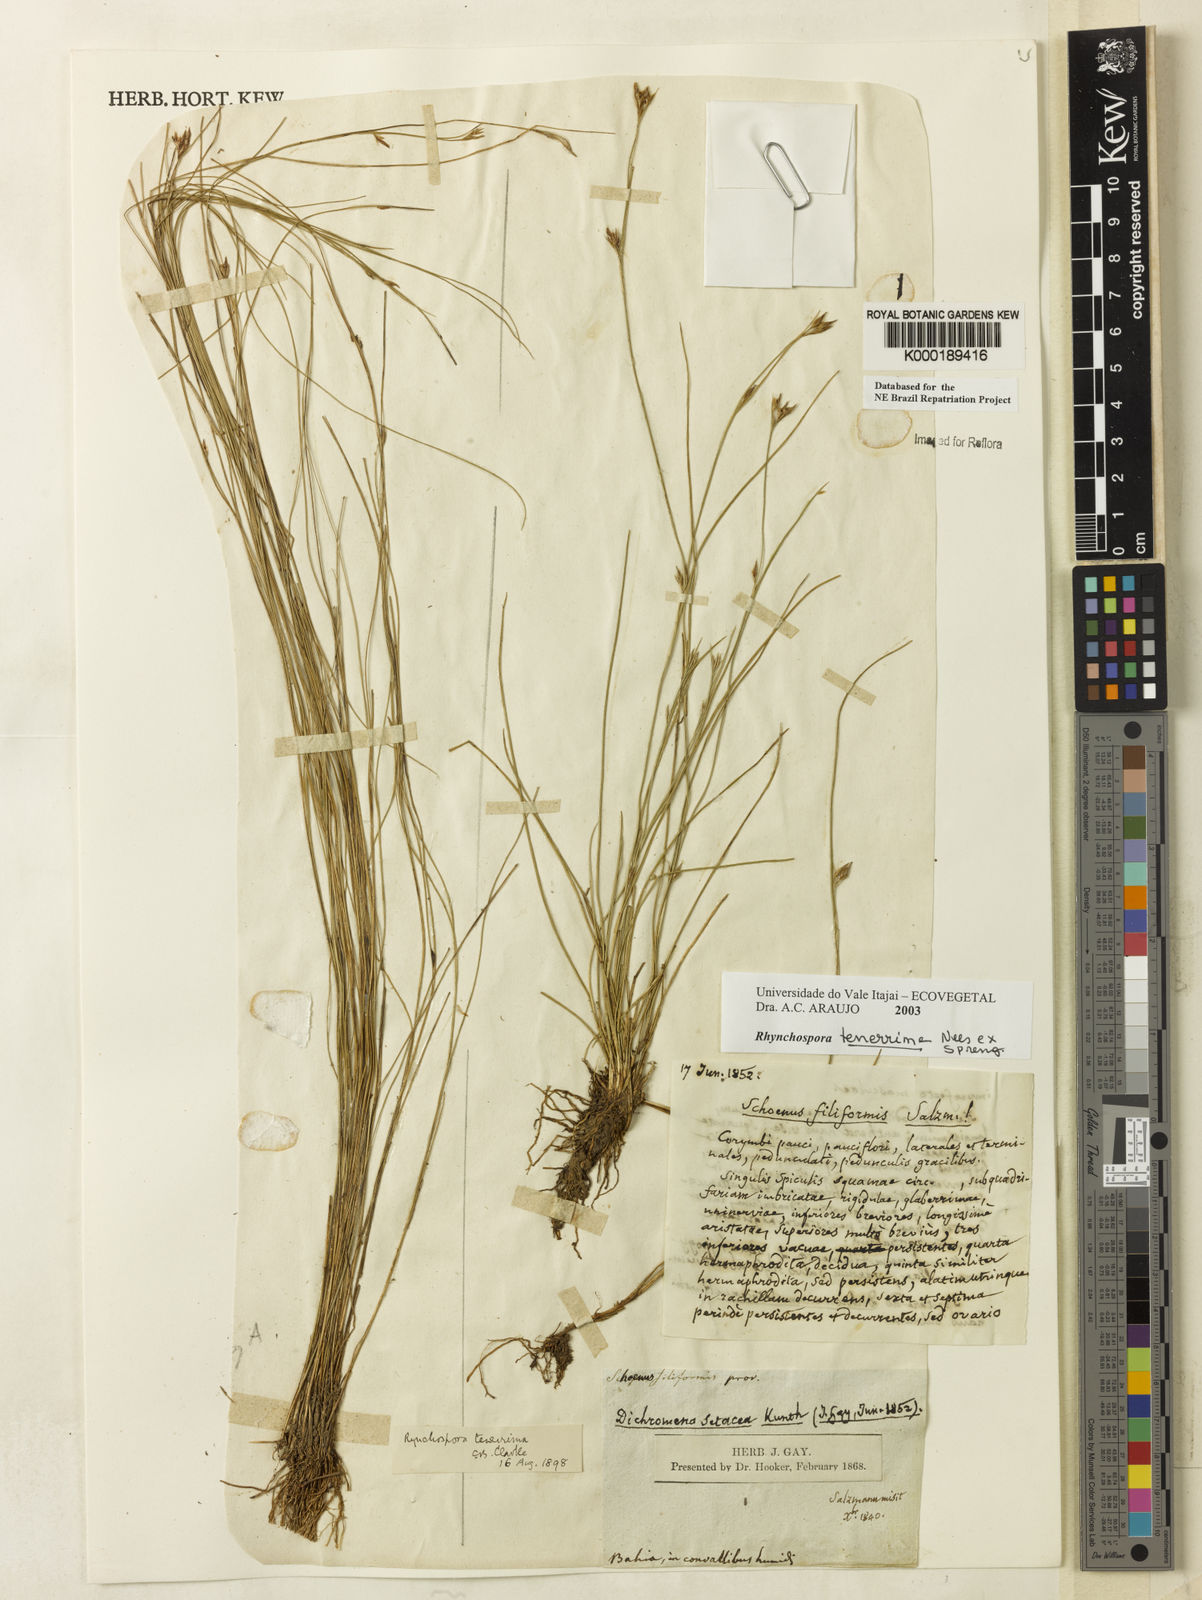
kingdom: Plantae
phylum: Tracheophyta
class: Liliopsida
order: Poales
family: Cyperaceae
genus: Rhynchospora
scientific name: Rhynchospora tenerrima
